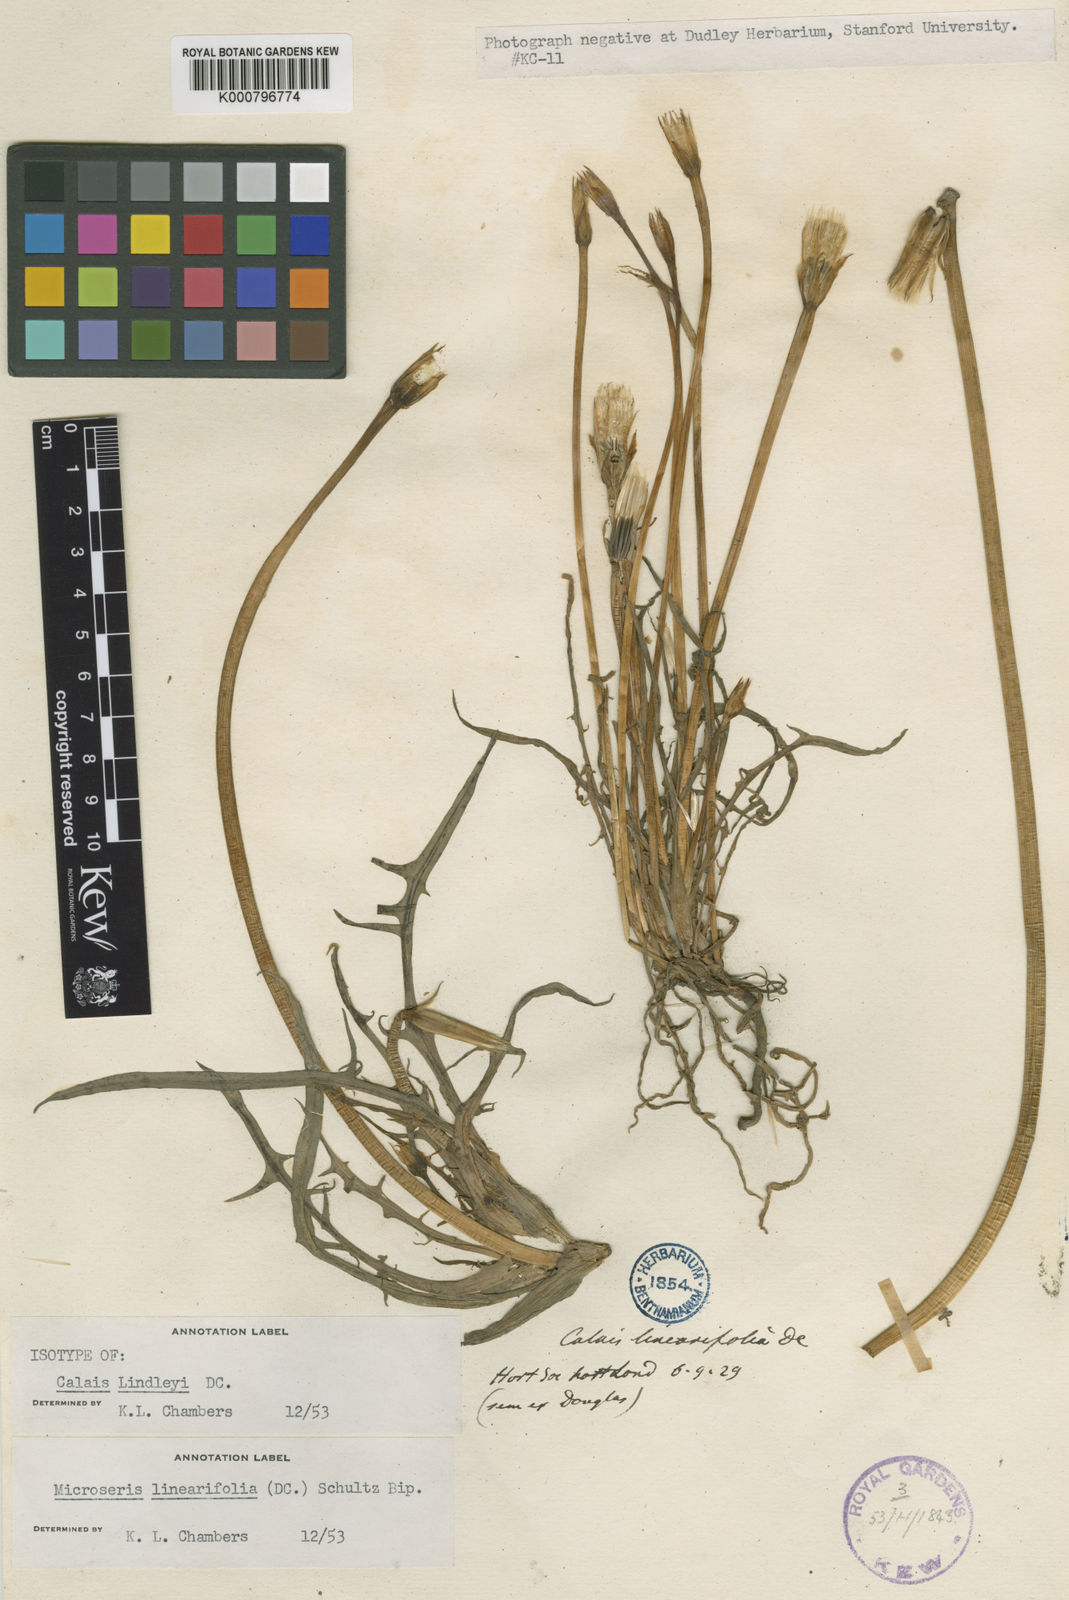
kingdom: Plantae
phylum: Tracheophyta
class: Magnoliopsida
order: Asterales
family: Asteraceae
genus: Microseris
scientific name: Microseris lindleyi
